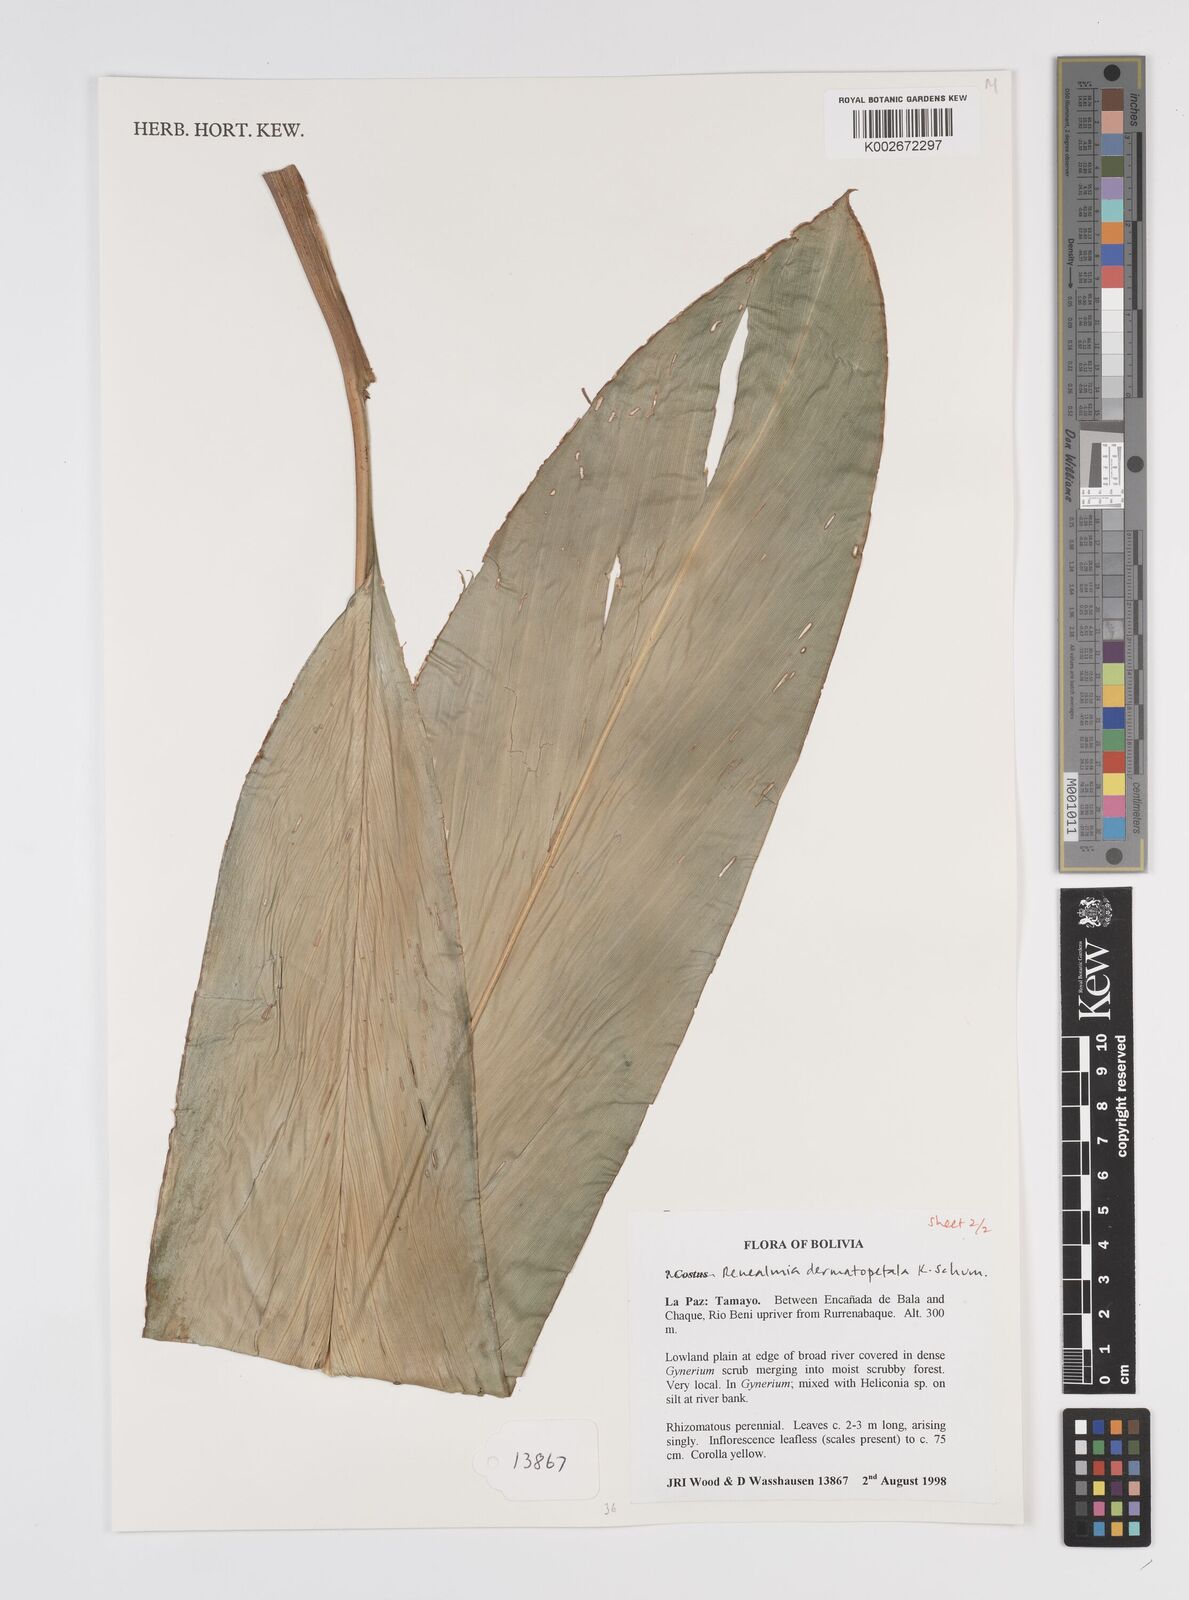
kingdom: Plantae
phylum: Tracheophyta
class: Liliopsida
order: Zingiberales
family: Zingiberaceae
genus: Renealmia
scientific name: Renealmia dermatopetala
